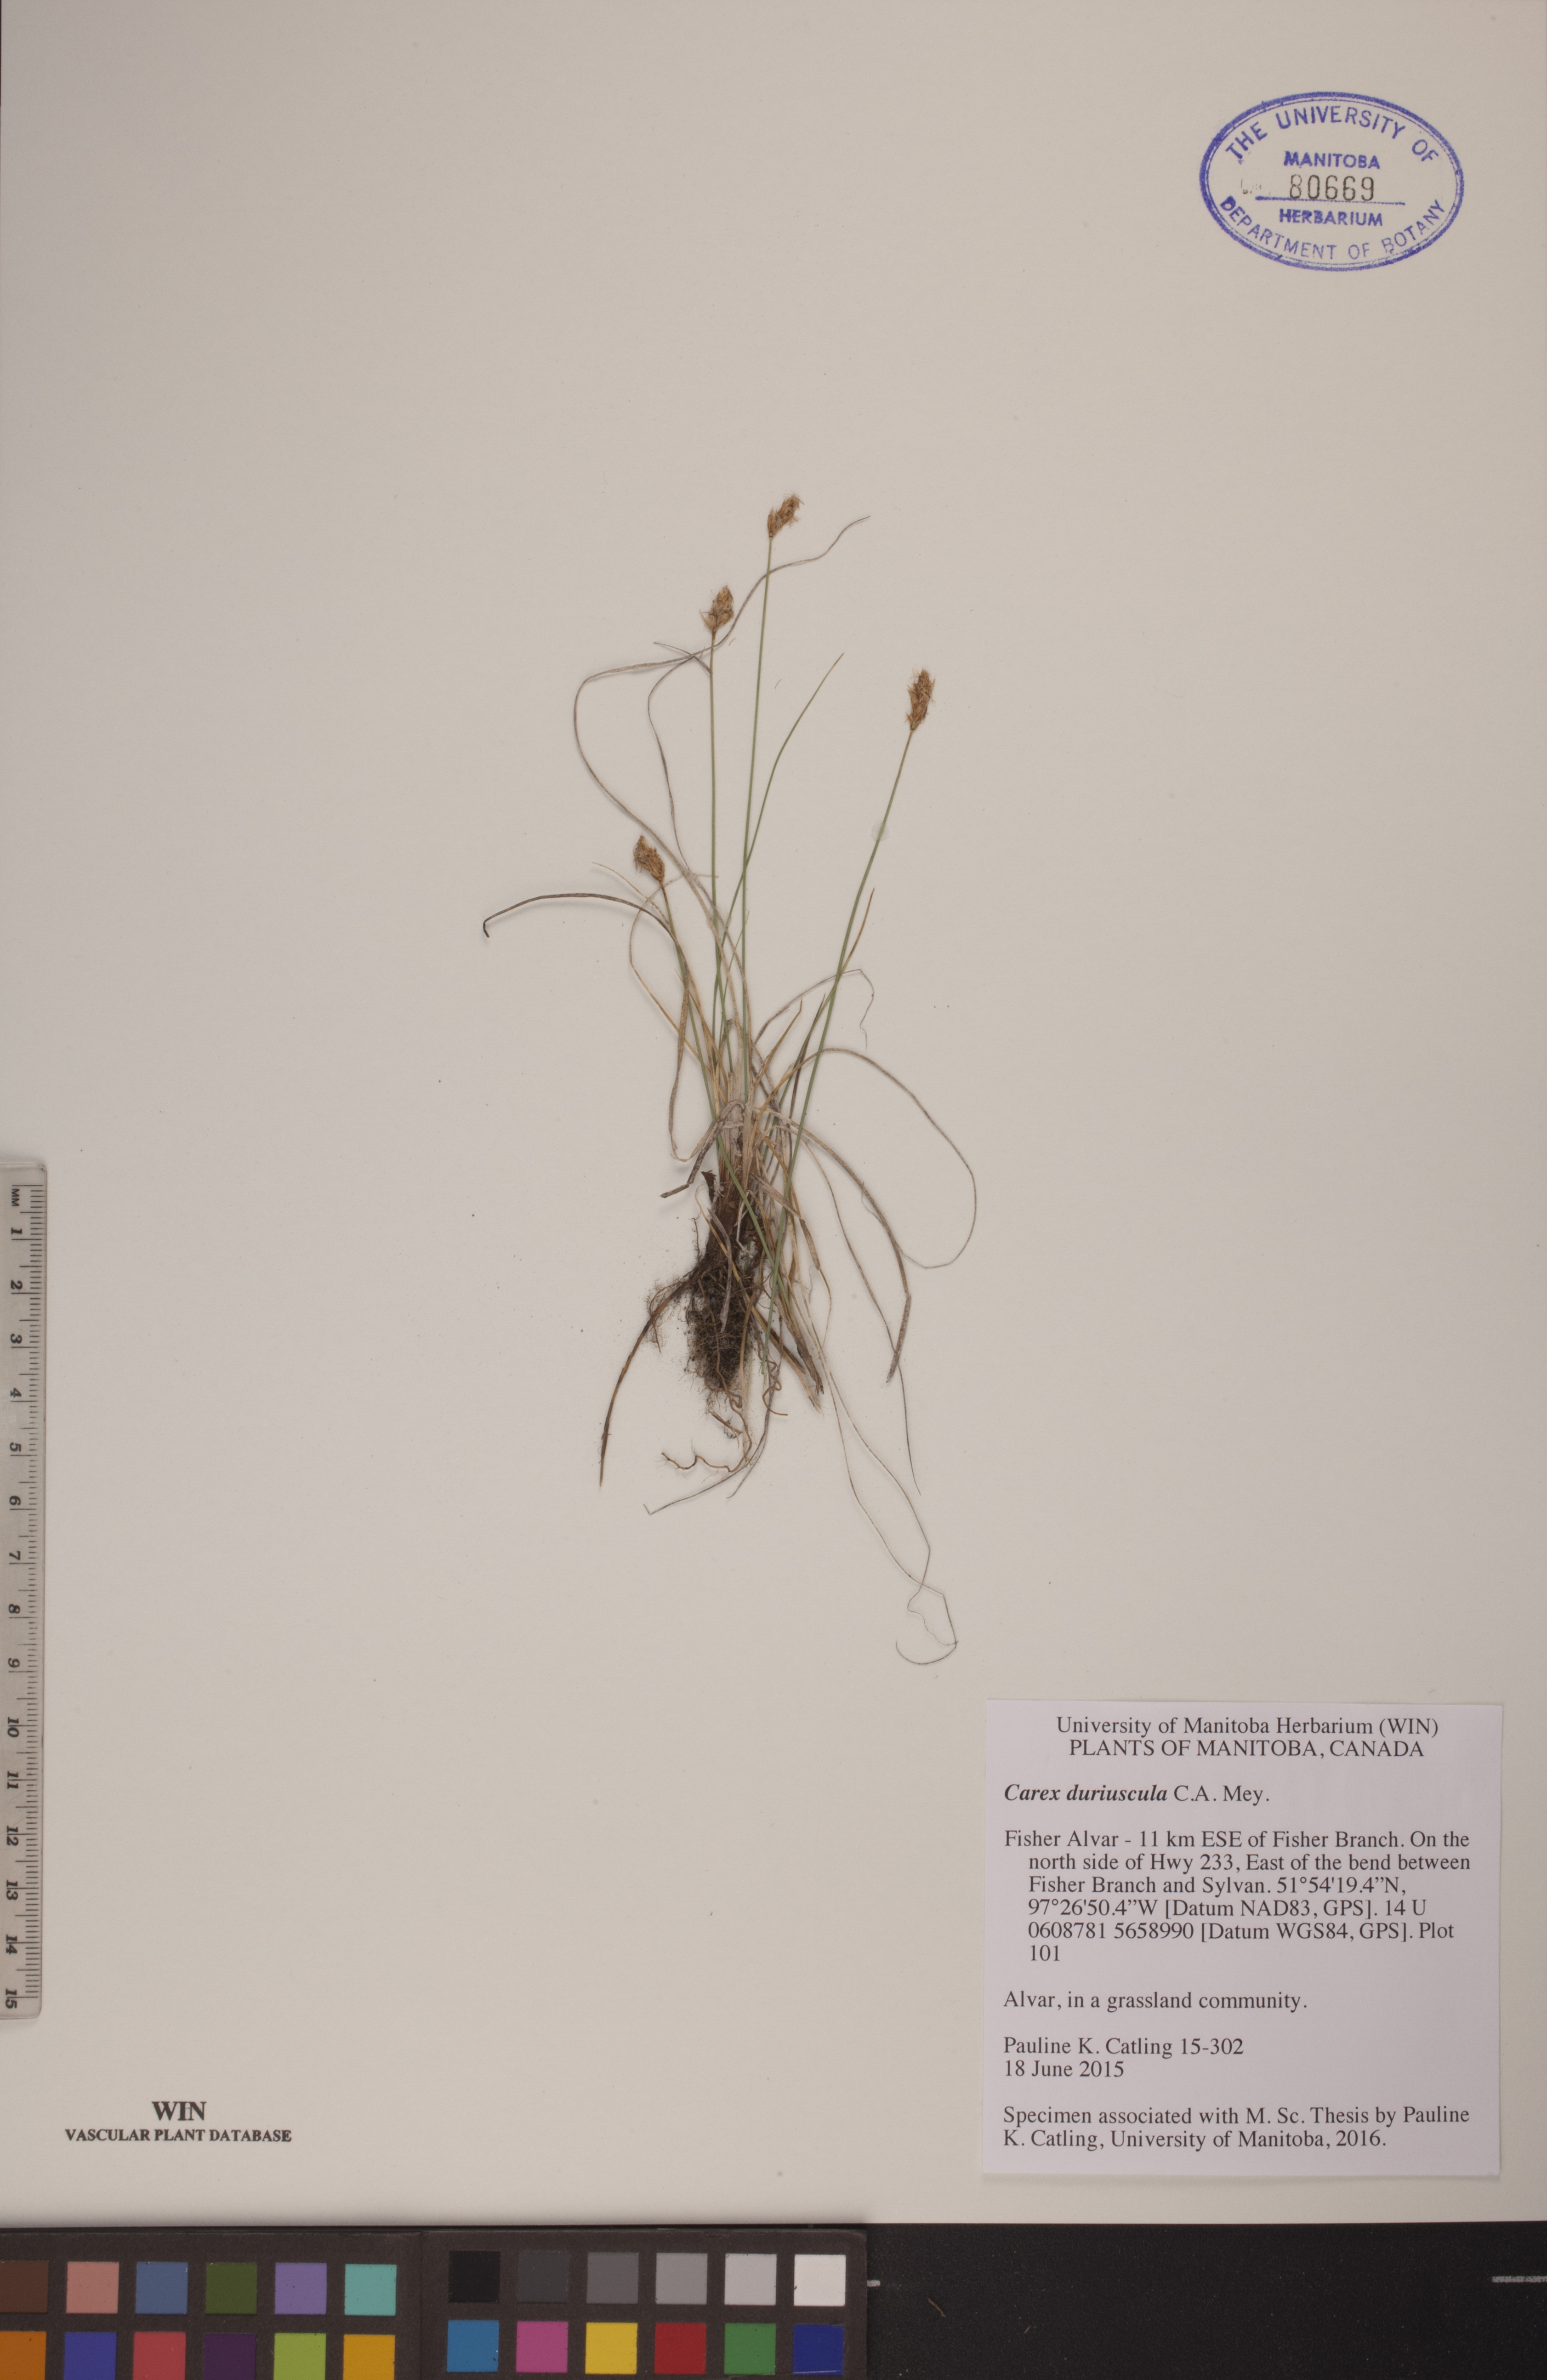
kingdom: Plantae
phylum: Tracheophyta
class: Liliopsida
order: Poales
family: Cyperaceae
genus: Carex
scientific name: Carex duriuscula
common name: Involute-leaved sedge
